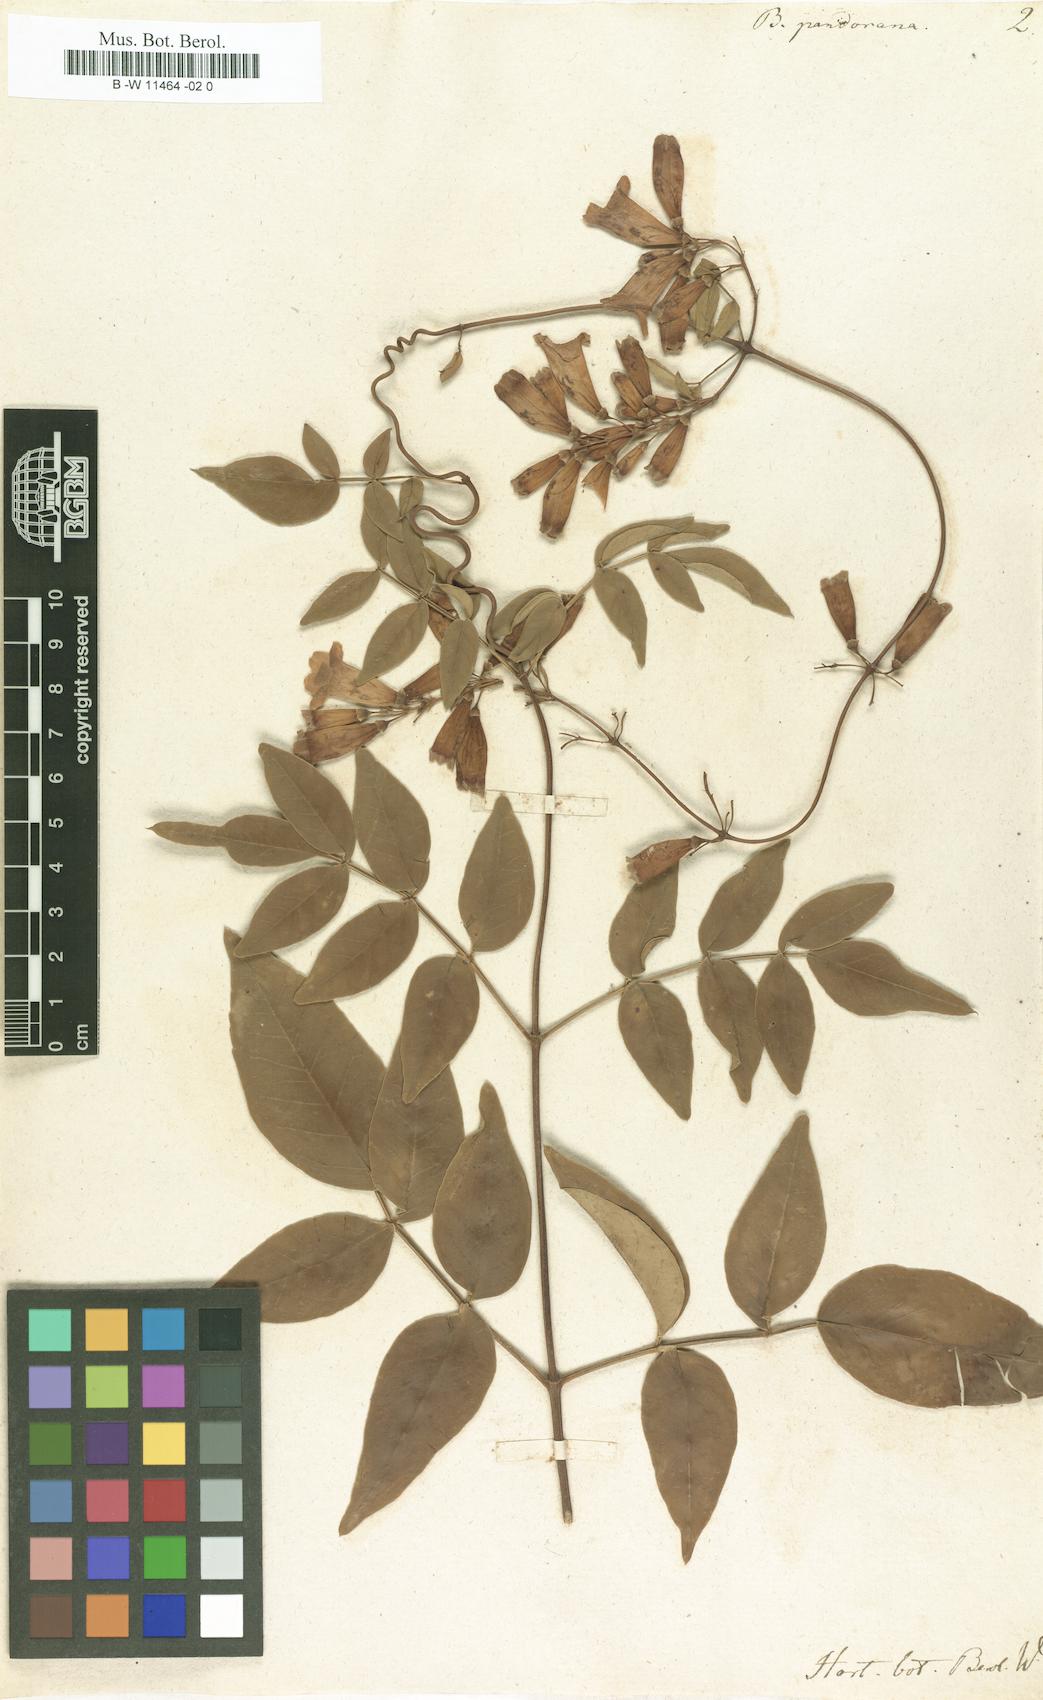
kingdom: Plantae
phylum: Tracheophyta
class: Magnoliopsida
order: Lamiales
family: Bignoniaceae
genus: Pandorea
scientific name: Pandorea pandorana
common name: Wonga-wonga-vine
